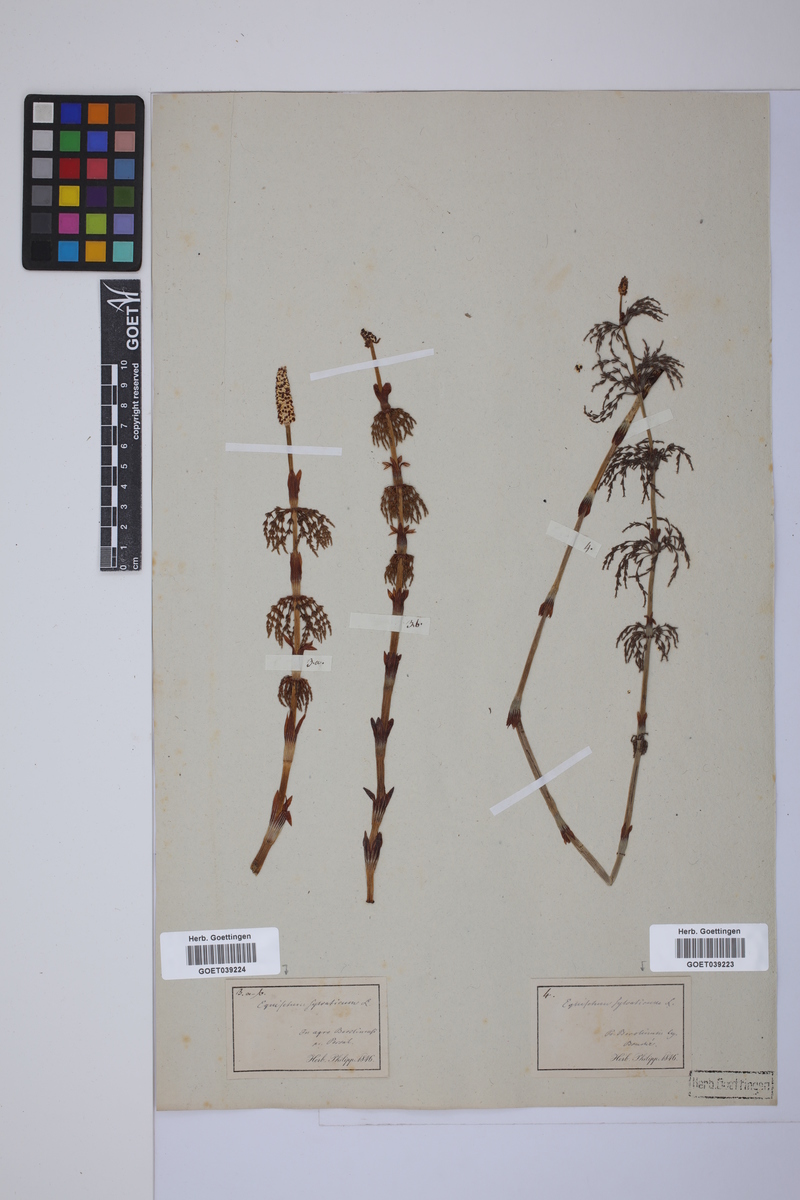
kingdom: Plantae
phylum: Tracheophyta
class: Polypodiopsida
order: Equisetales
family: Equisetaceae
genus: Equisetum
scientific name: Equisetum sylvaticum
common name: Wood horsetail
